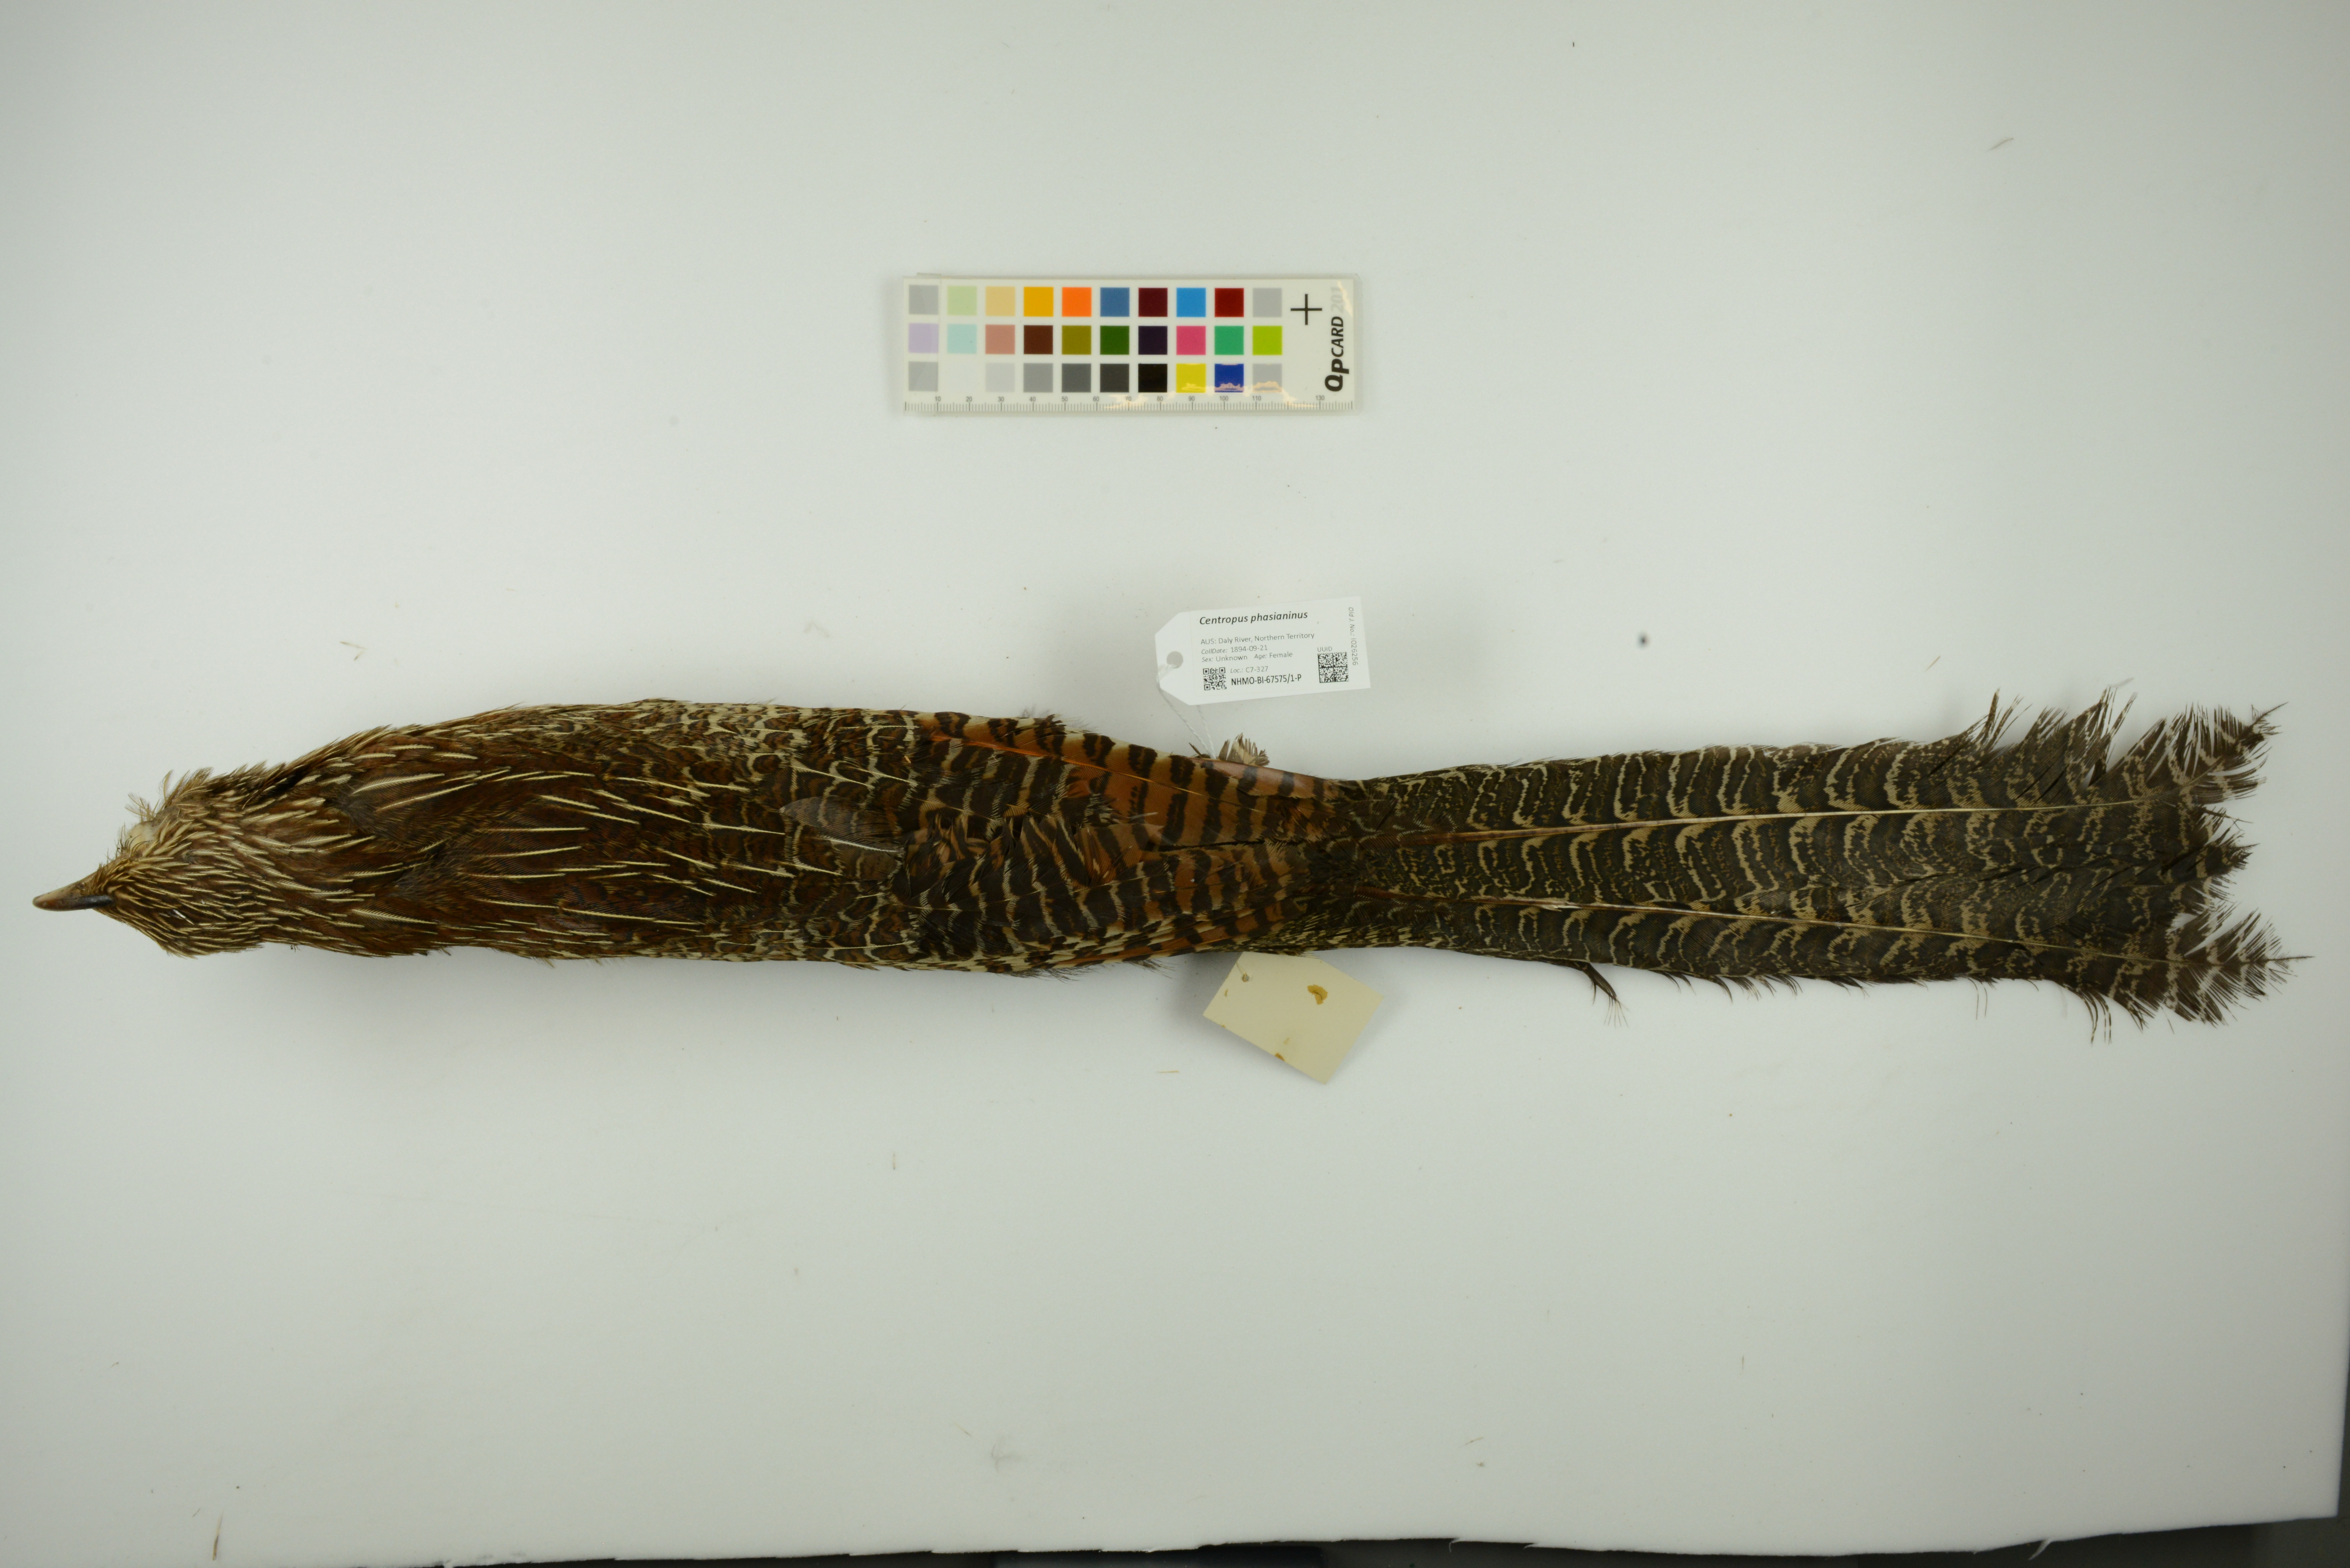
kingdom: Animalia
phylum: Chordata
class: Aves
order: Cuculiformes
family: Cuculidae
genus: Centropus
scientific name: Centropus phasianinus
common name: Pheasant coucal
